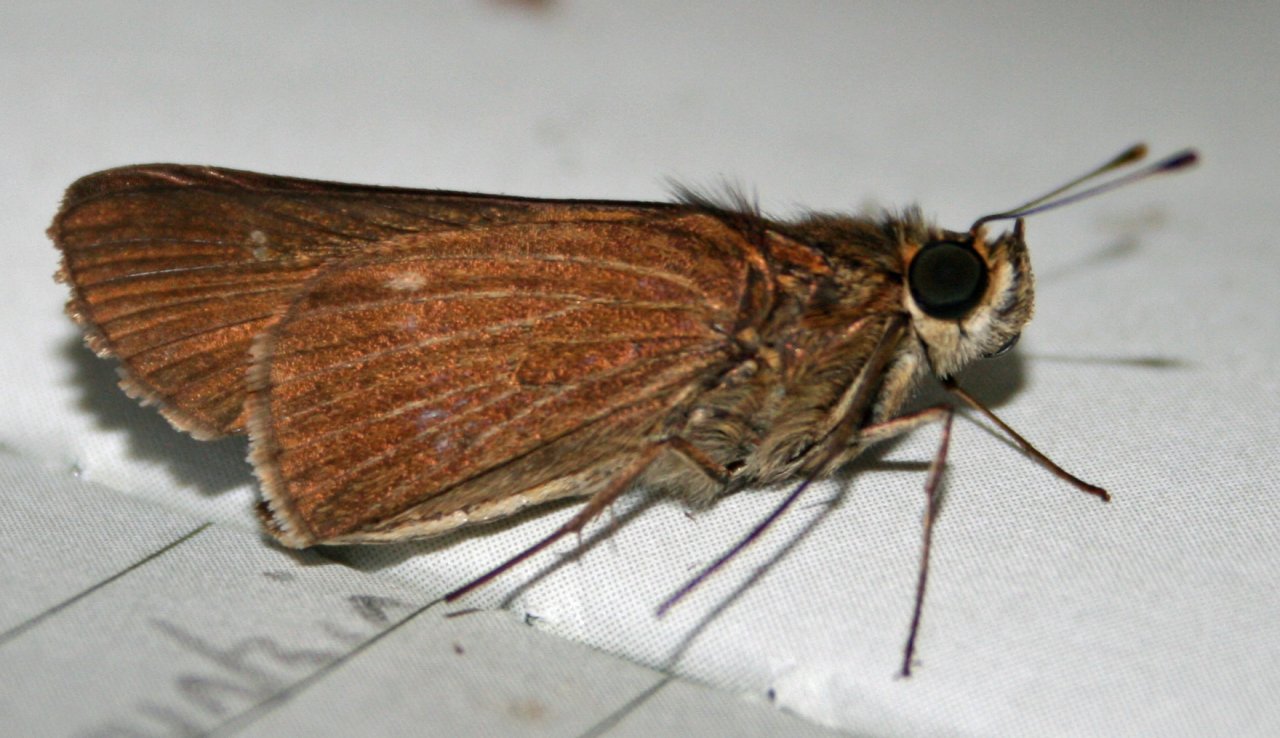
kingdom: Animalia
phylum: Arthropoda
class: Insecta
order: Lepidoptera
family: Hesperiidae
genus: Panoquina
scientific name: Panoquina ocola
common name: Ocola Skipper
